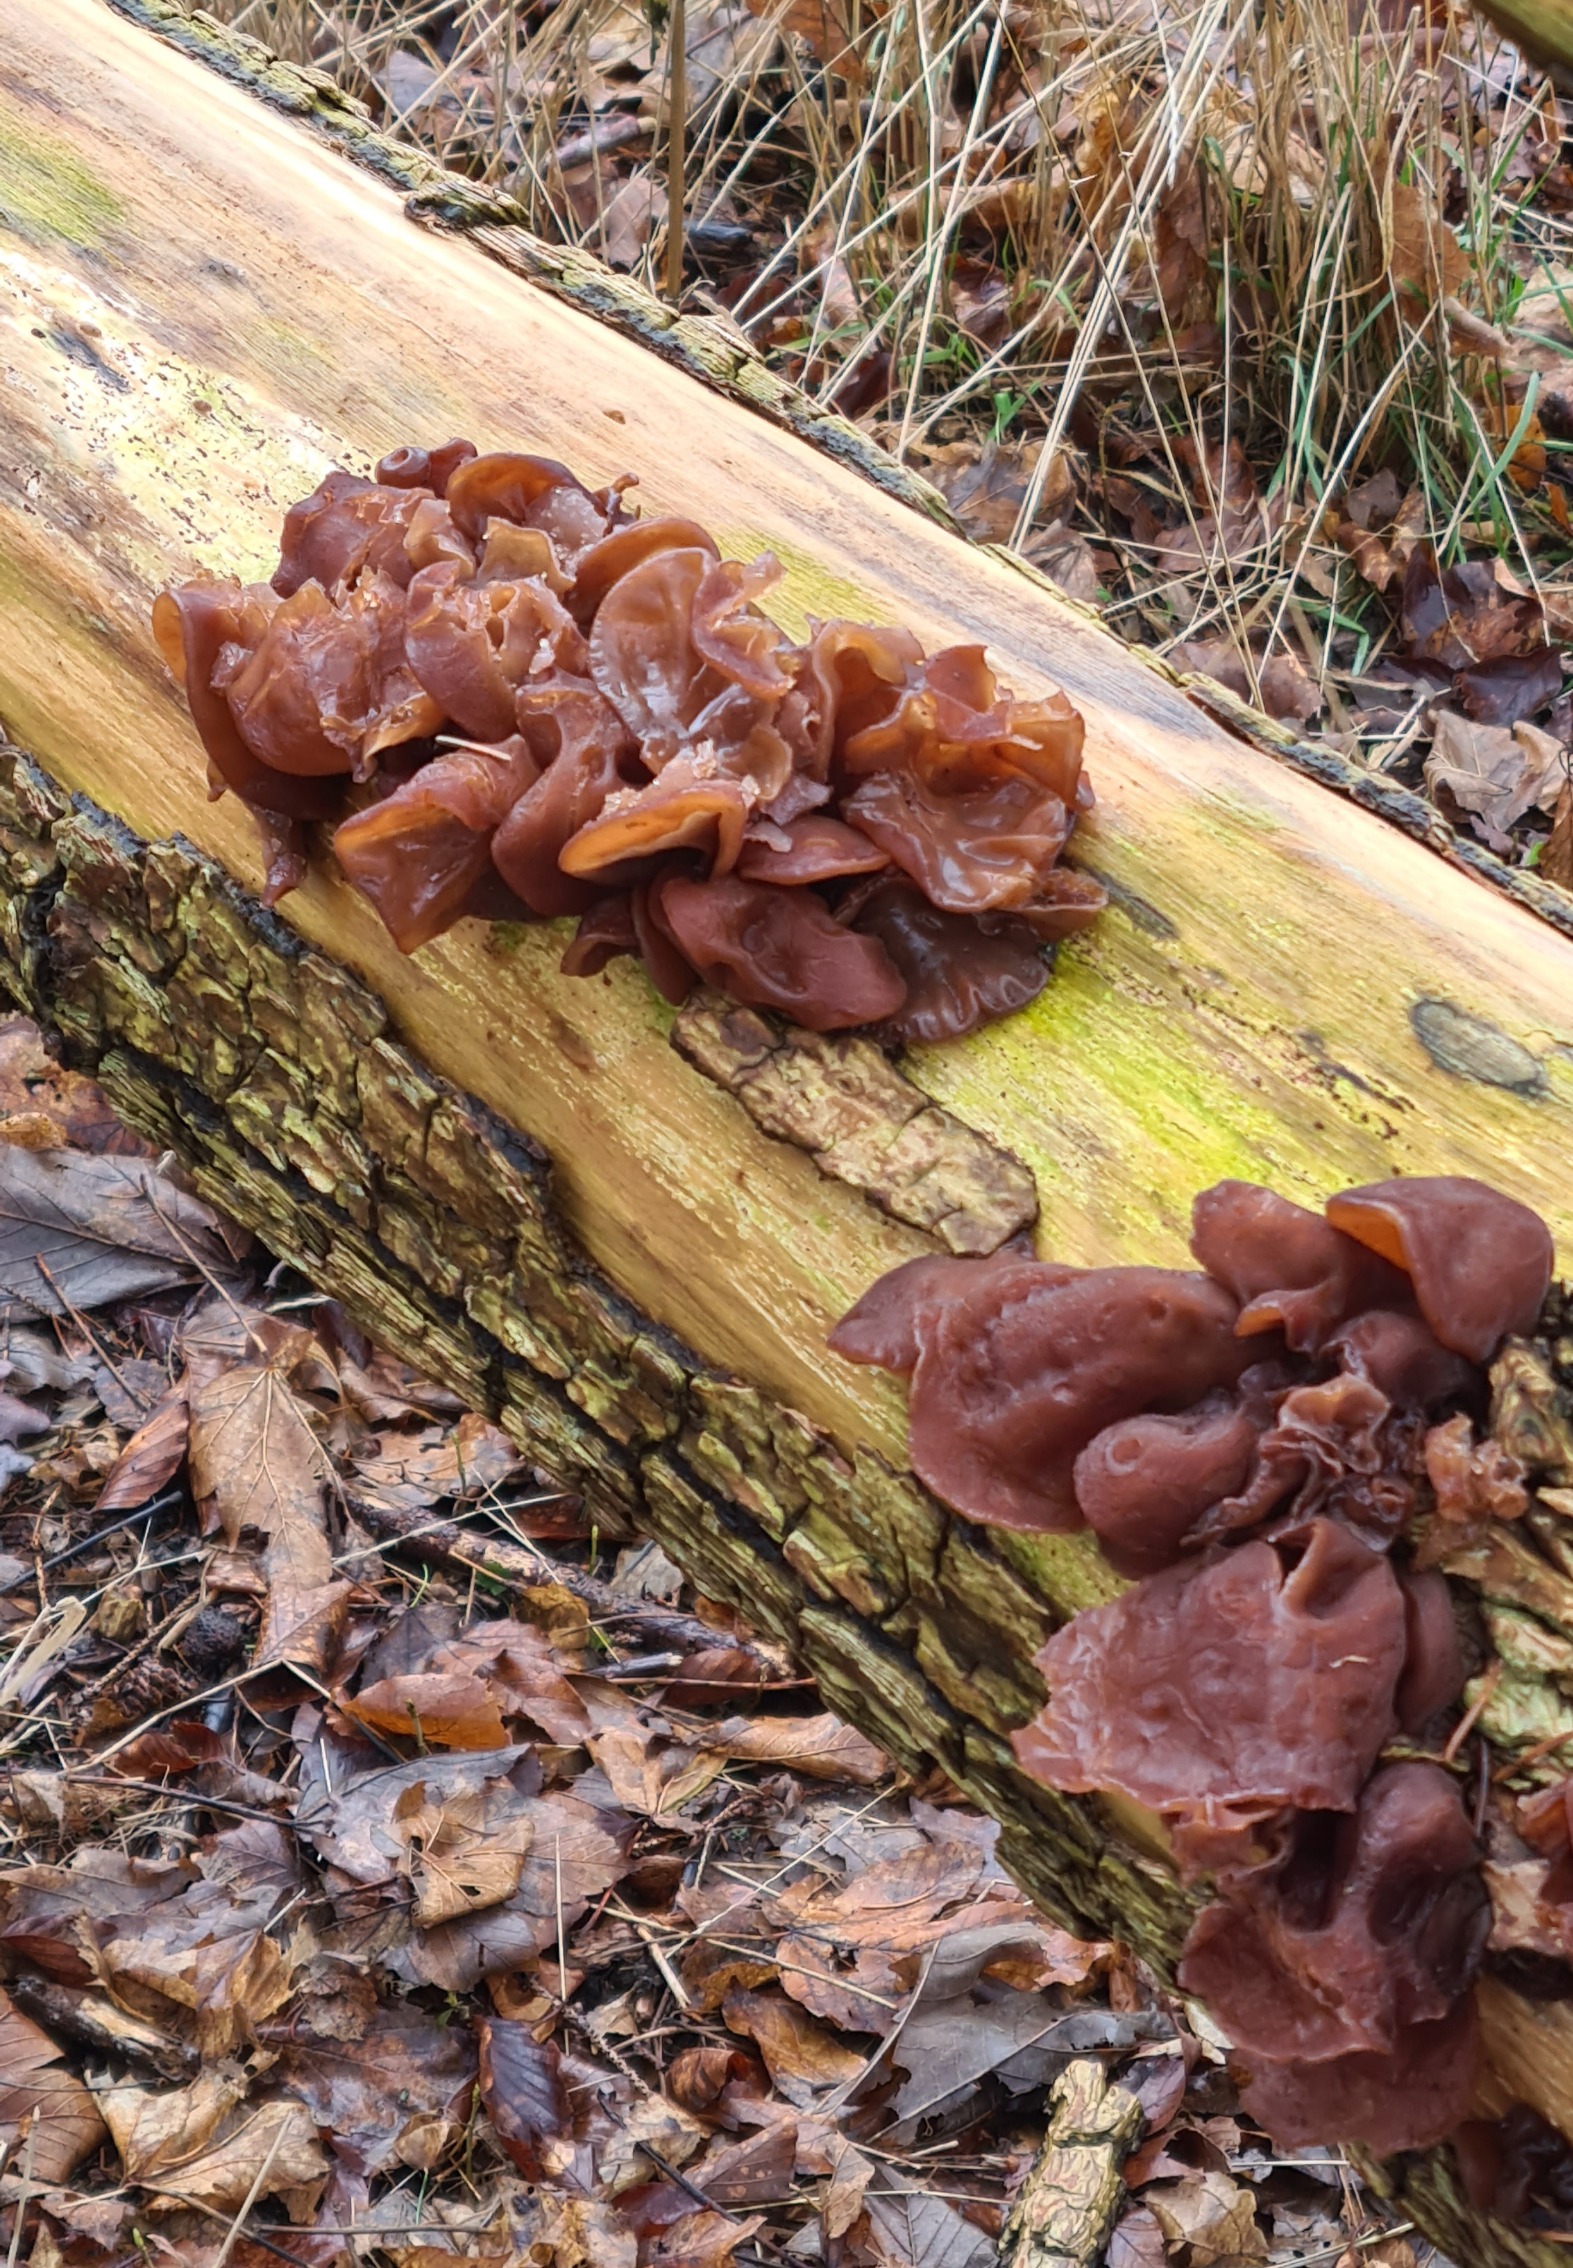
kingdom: Fungi
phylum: Basidiomycota
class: Agaricomycetes
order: Auriculariales
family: Auriculariaceae
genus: Auricularia
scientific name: Auricularia auricula-judae
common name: Almindelig judasøre
